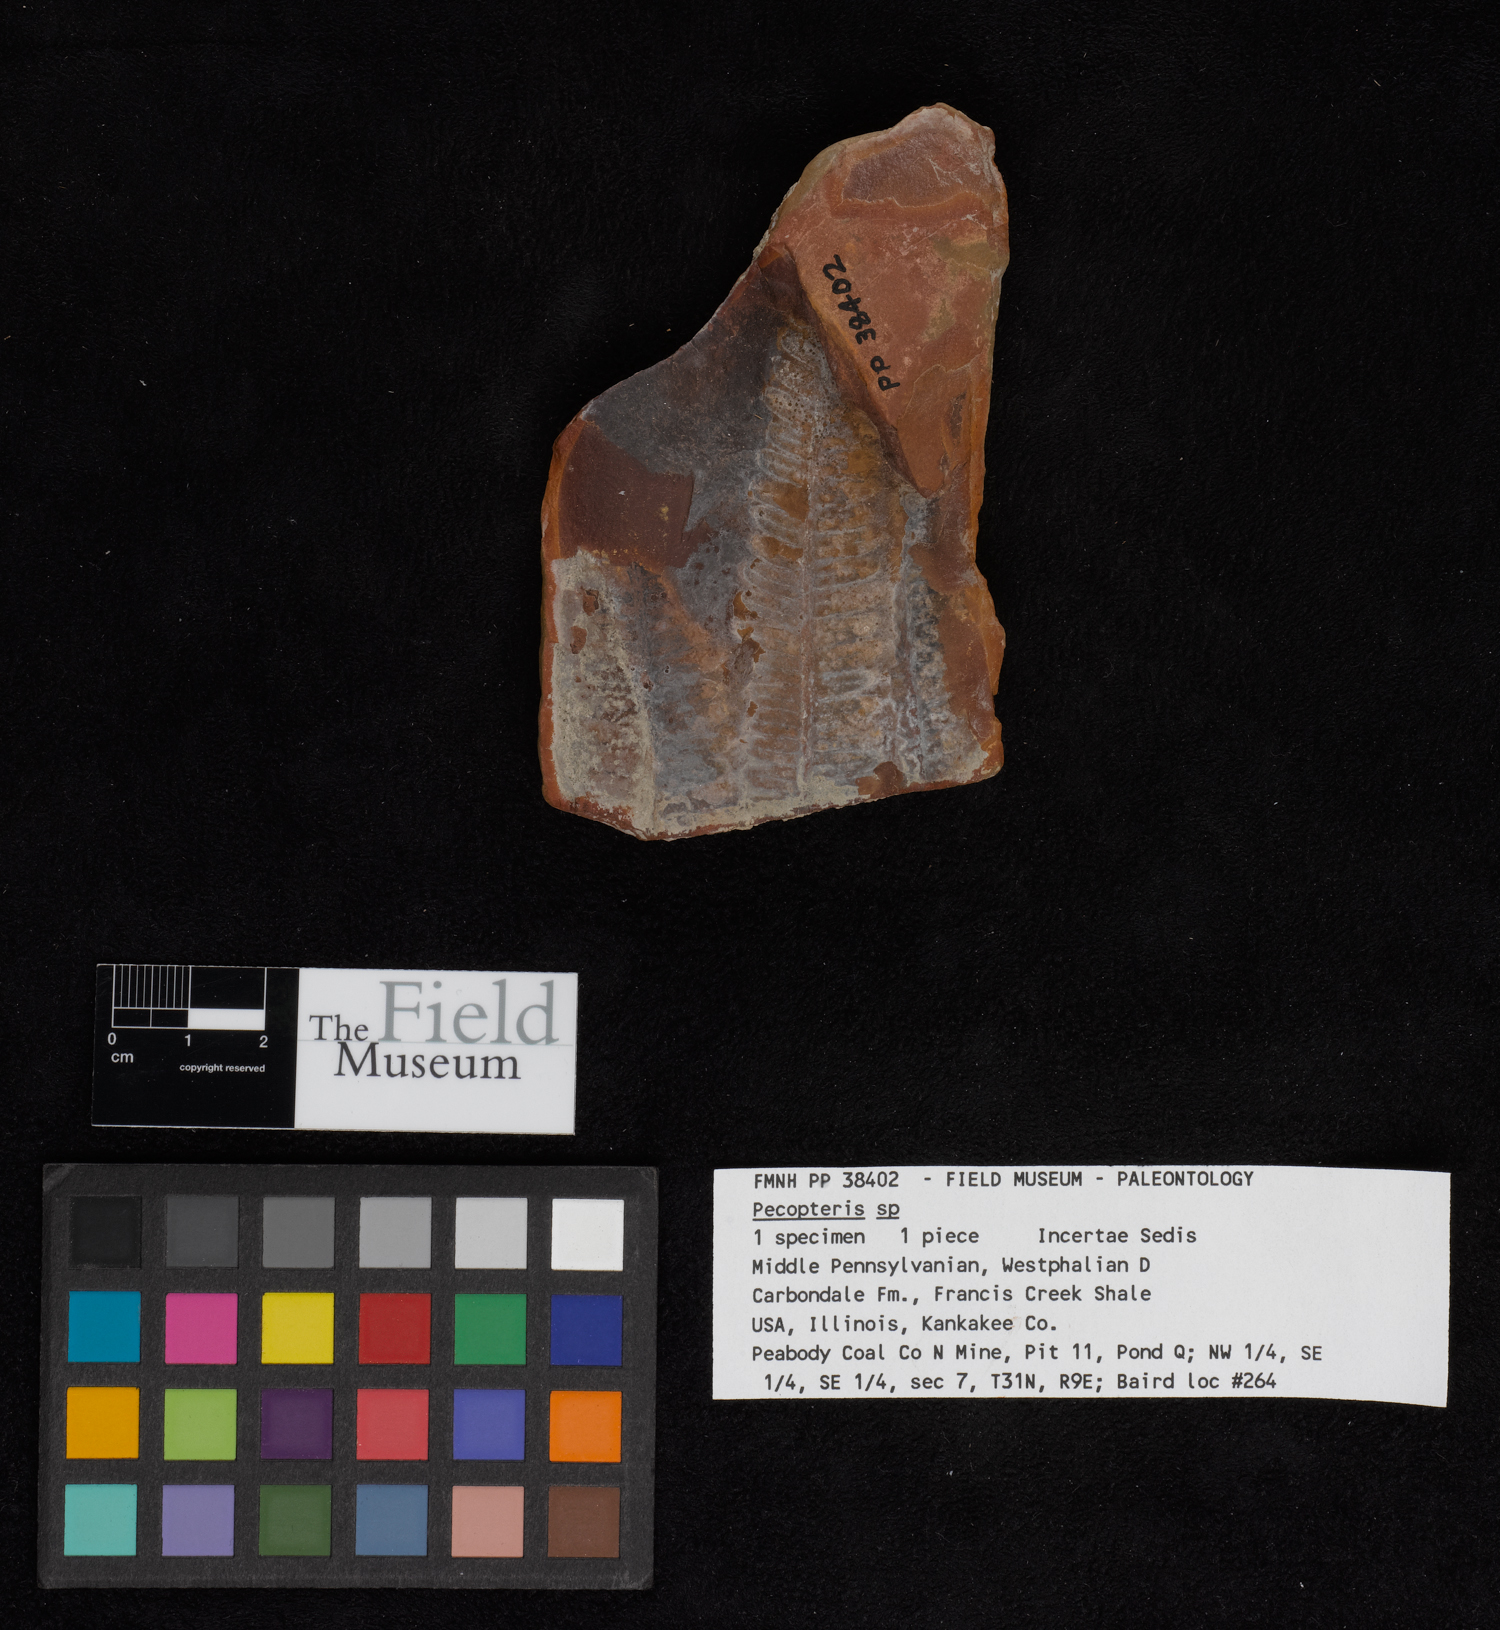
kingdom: Plantae
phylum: Tracheophyta
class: Polypodiopsida
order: Marattiales
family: Asterothecaceae
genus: Pecopteris
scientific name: Pecopteris
